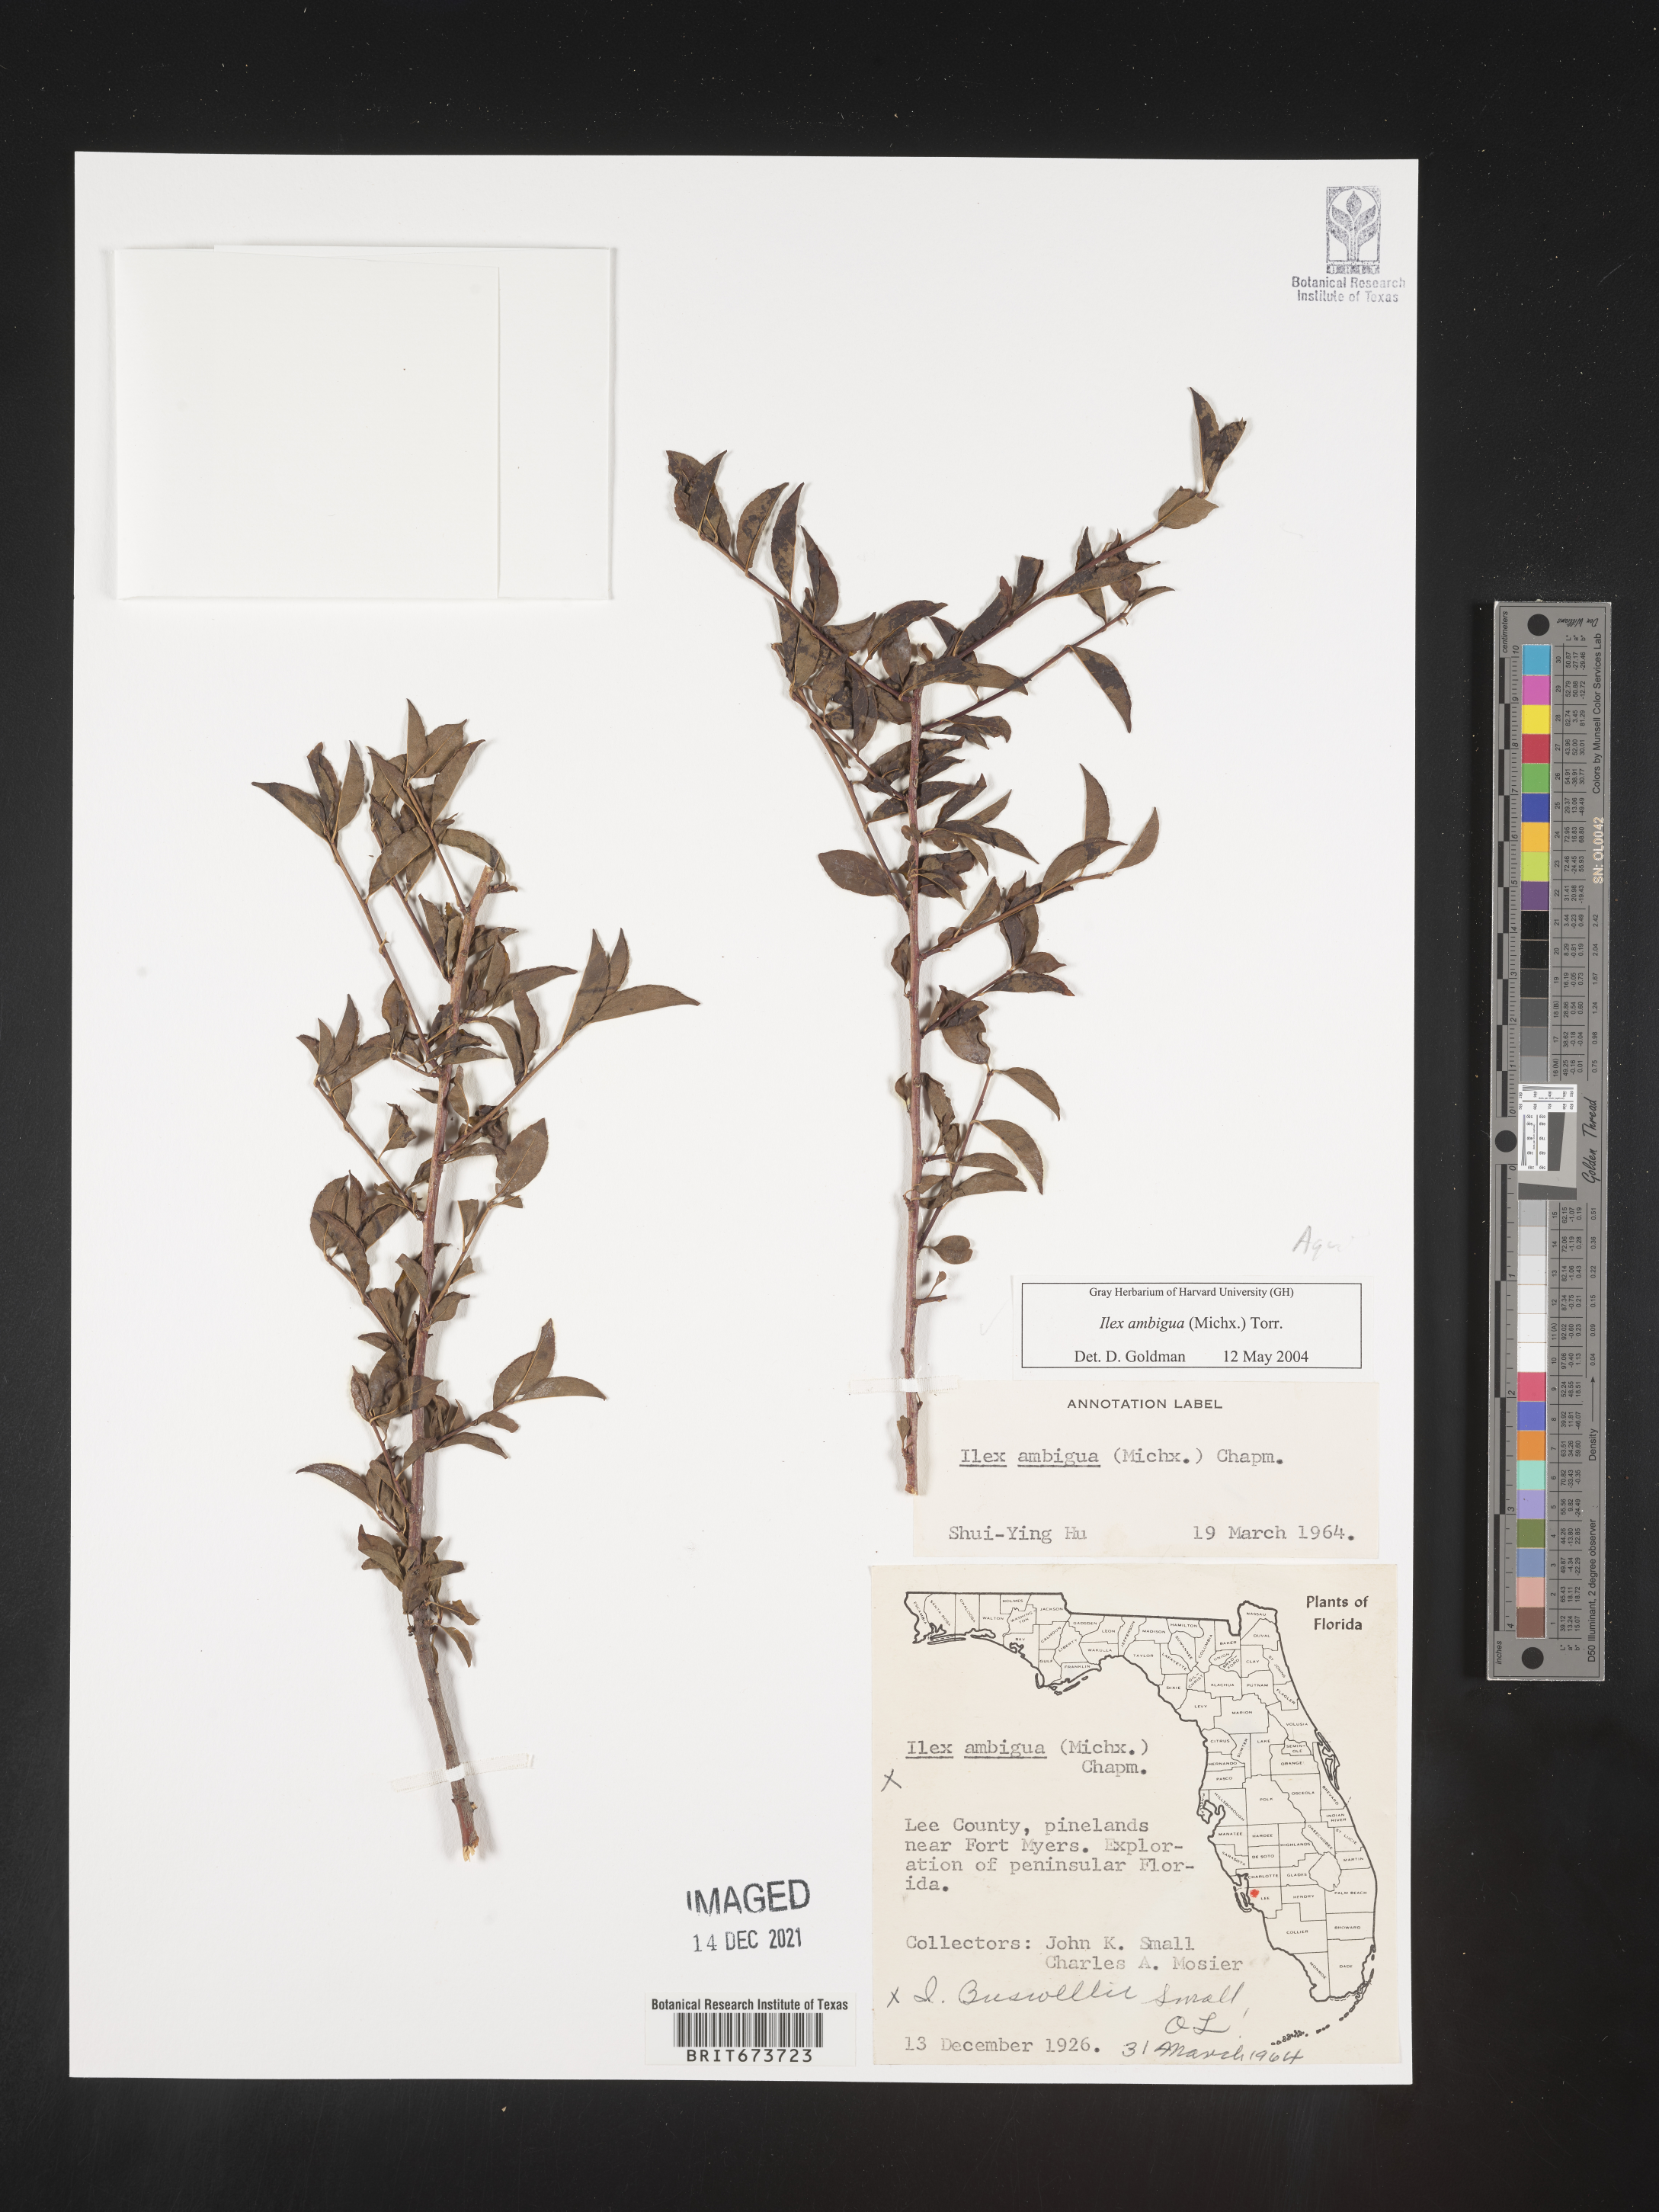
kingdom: Plantae
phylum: Tracheophyta
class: Magnoliopsida
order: Aquifoliales
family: Aquifoliaceae
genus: Ilex
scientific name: Ilex ambigua
